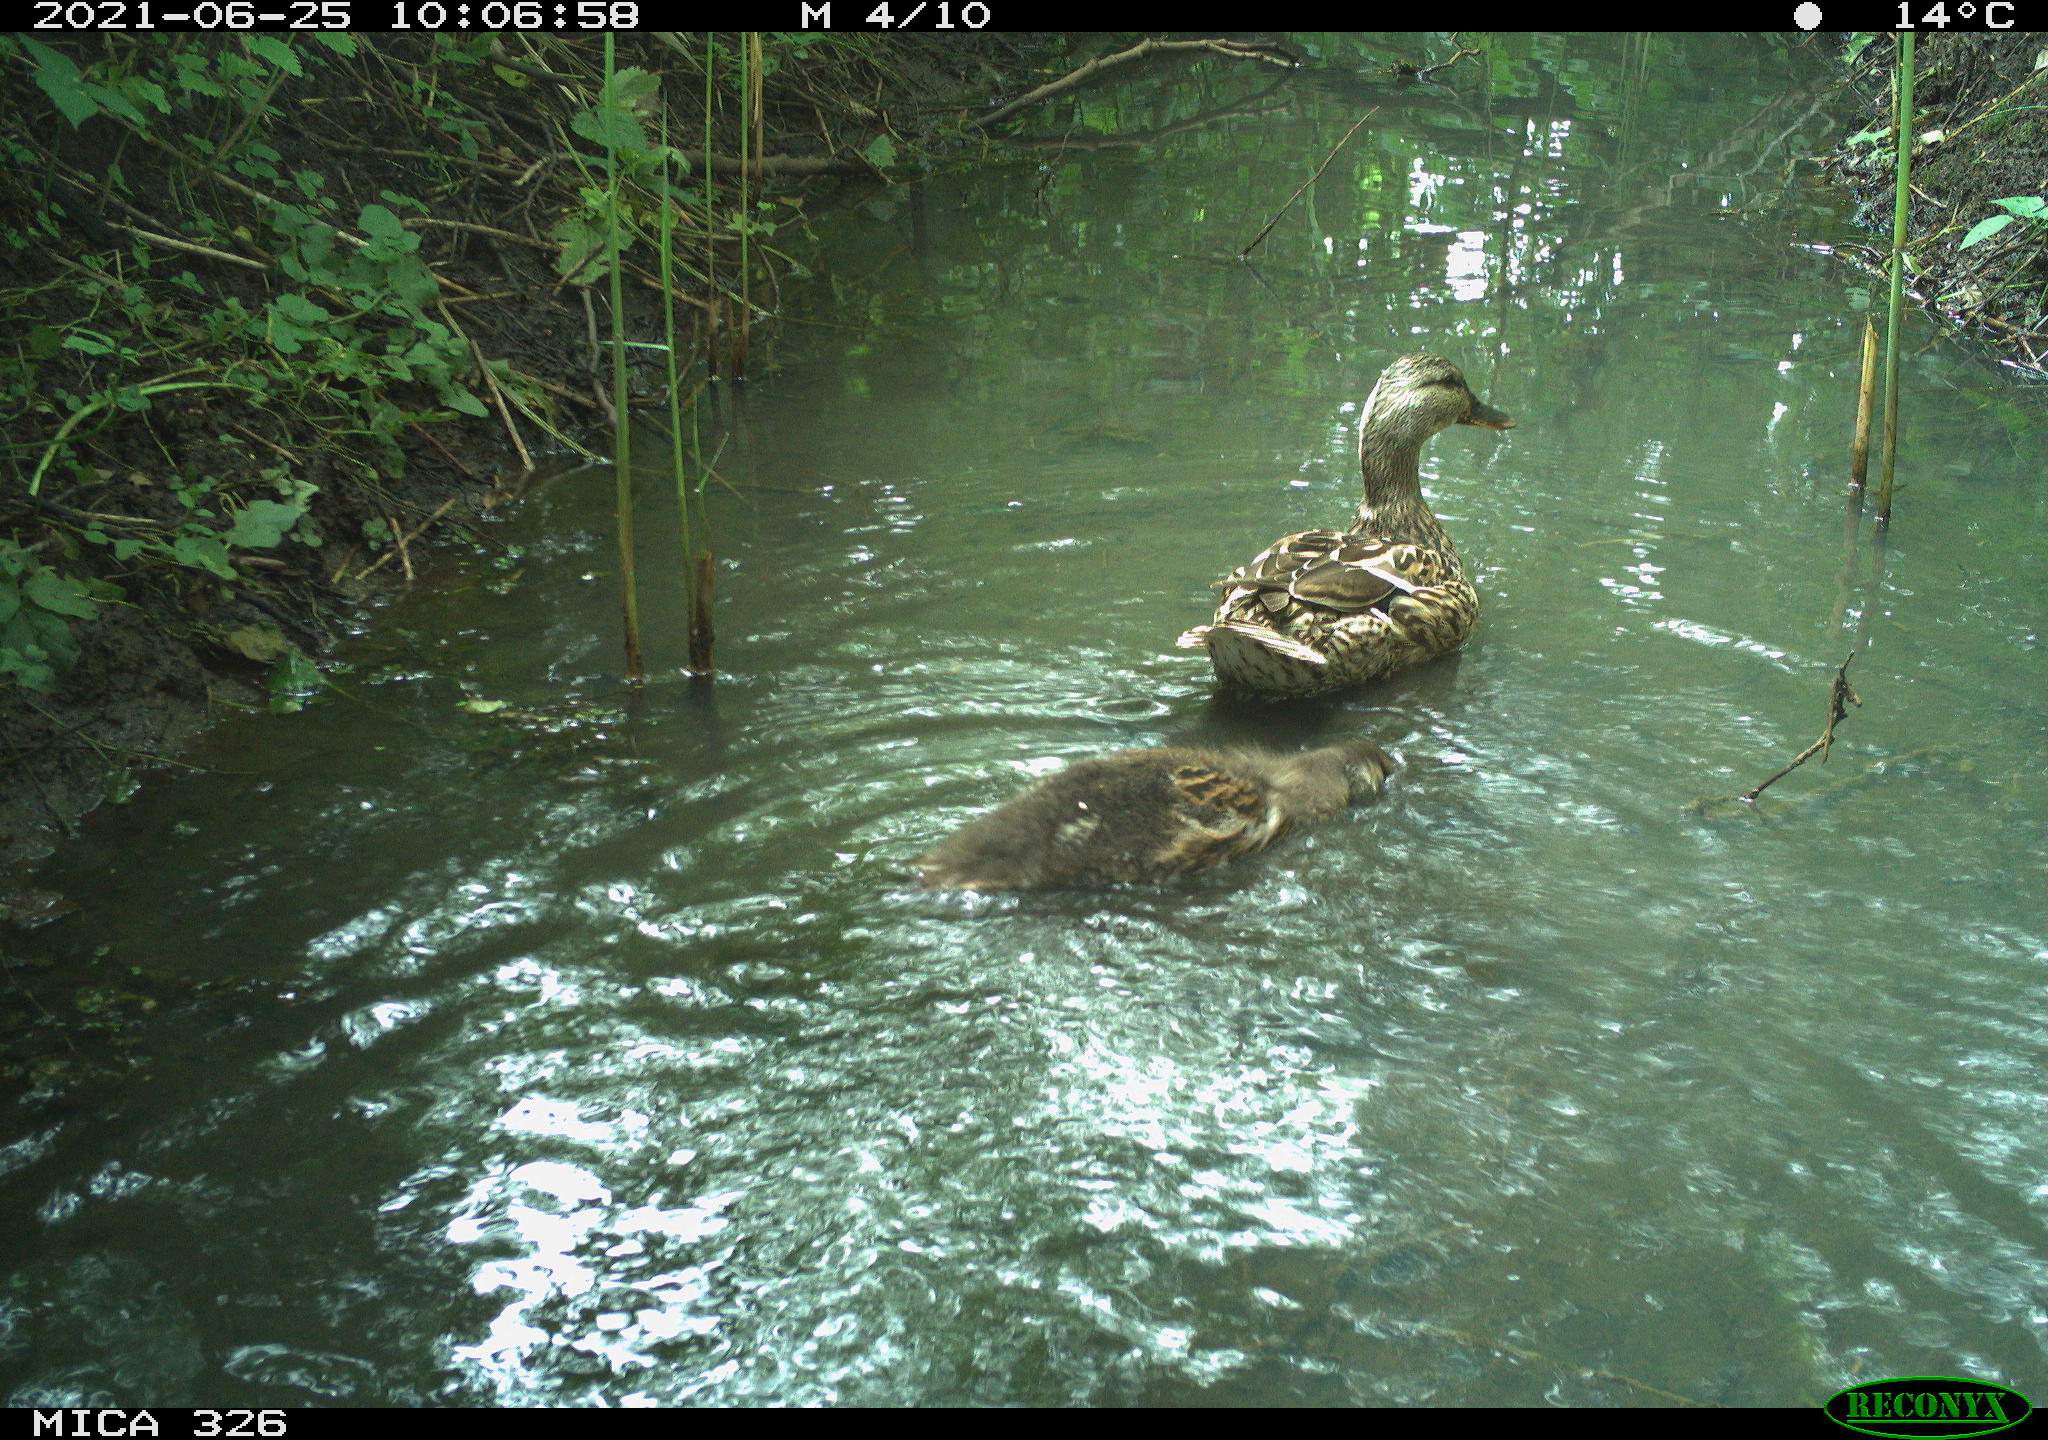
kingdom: Animalia
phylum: Chordata
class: Aves
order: Anseriformes
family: Anatidae
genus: Anas
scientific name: Anas platyrhynchos
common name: Mallard
